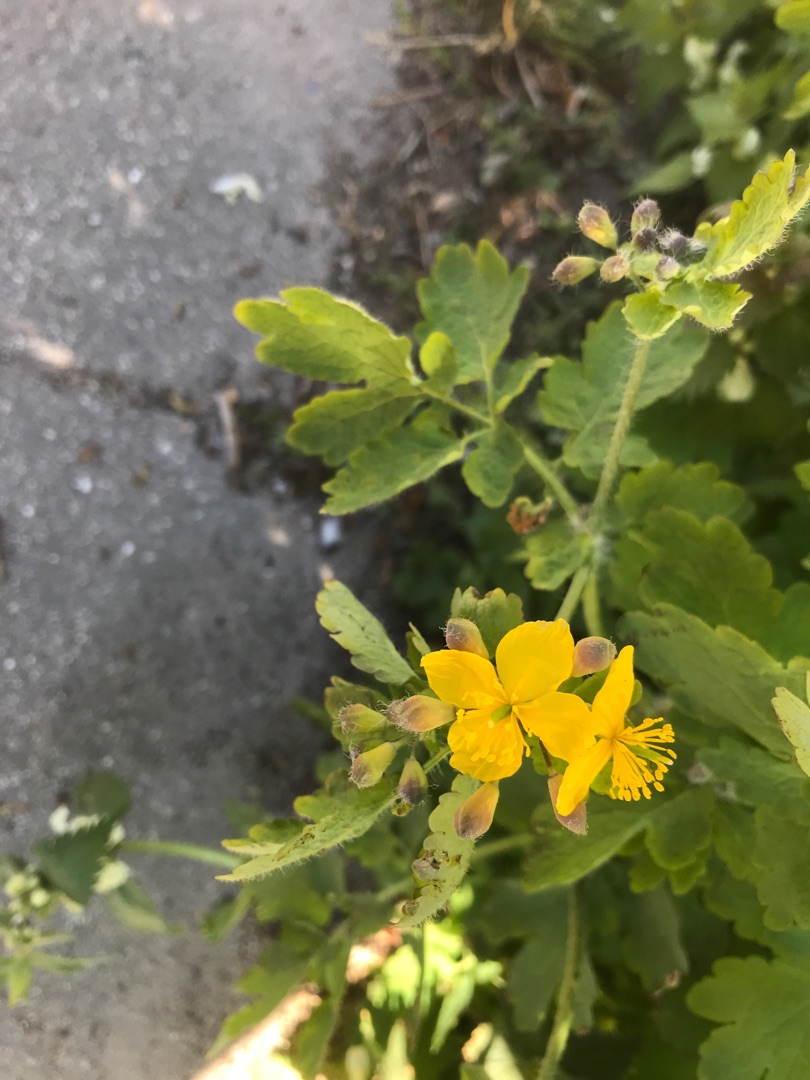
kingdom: Plantae
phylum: Tracheophyta
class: Magnoliopsida
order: Ranunculales
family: Papaveraceae
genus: Chelidonium
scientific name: Chelidonium majus
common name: Svaleurt
